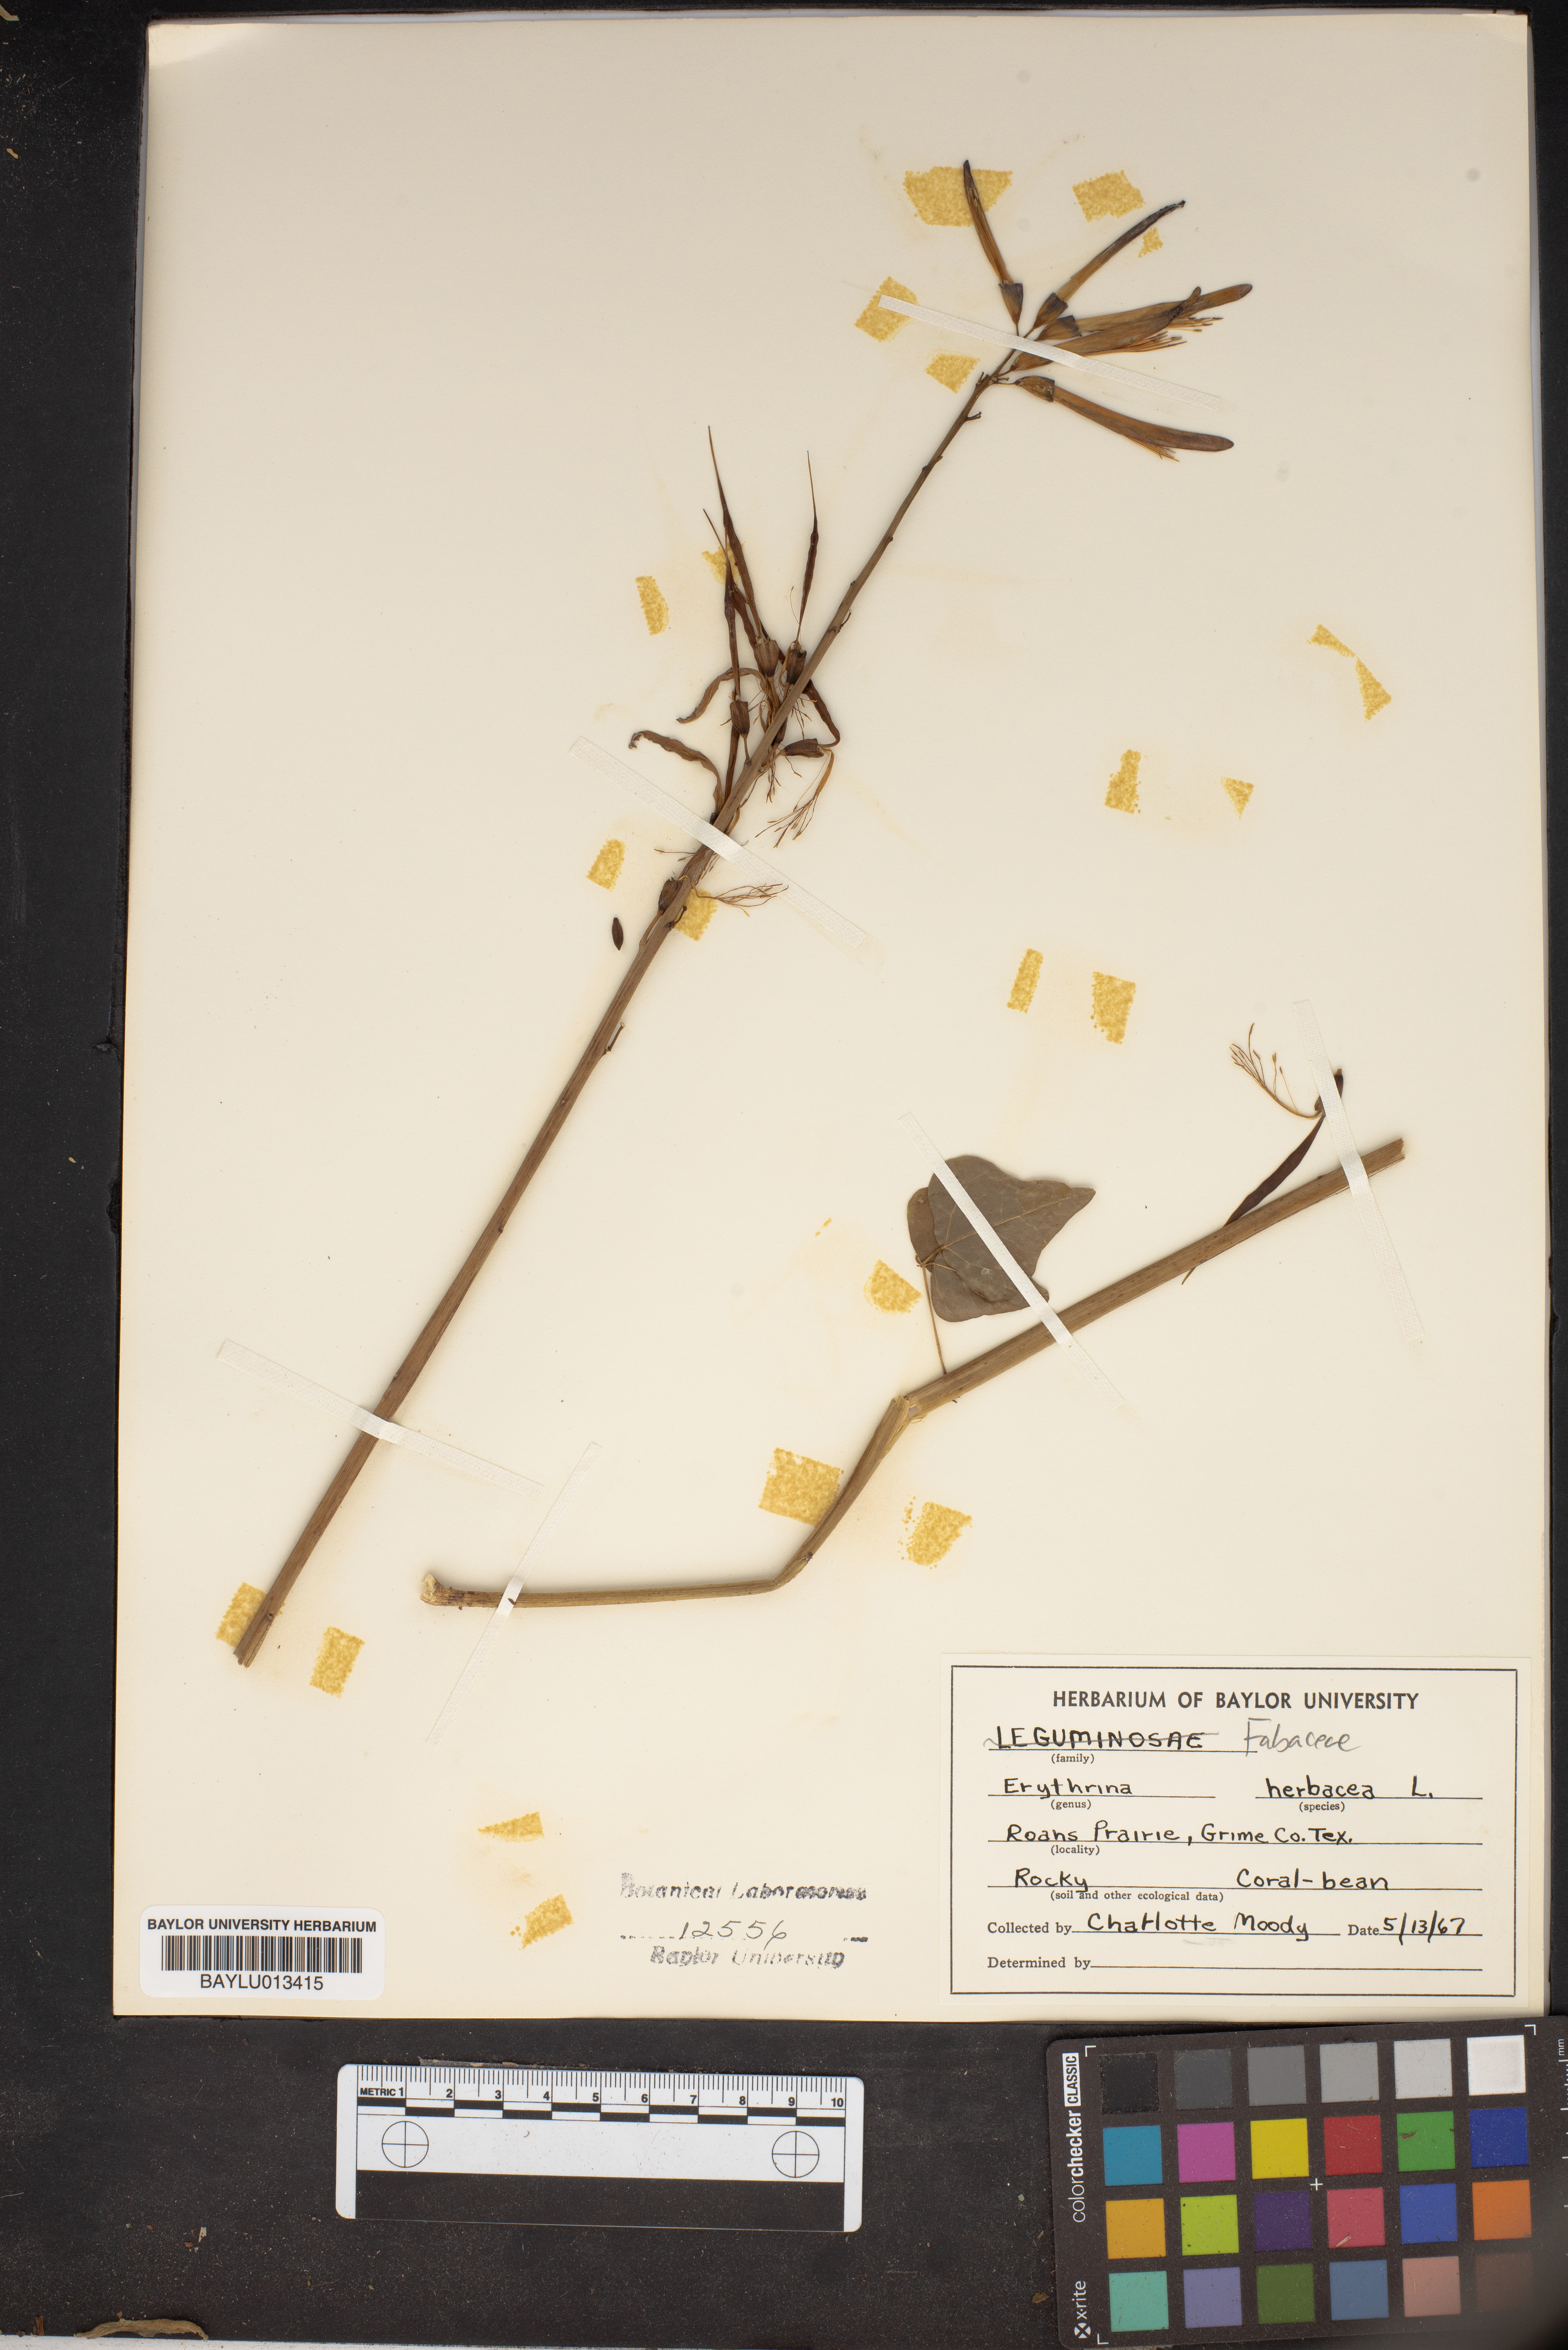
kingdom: Plantae
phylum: Tracheophyta
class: Magnoliopsida
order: Fabales
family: Fabaceae
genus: Erythrina
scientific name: Erythrina herbacea
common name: Coral-bean
